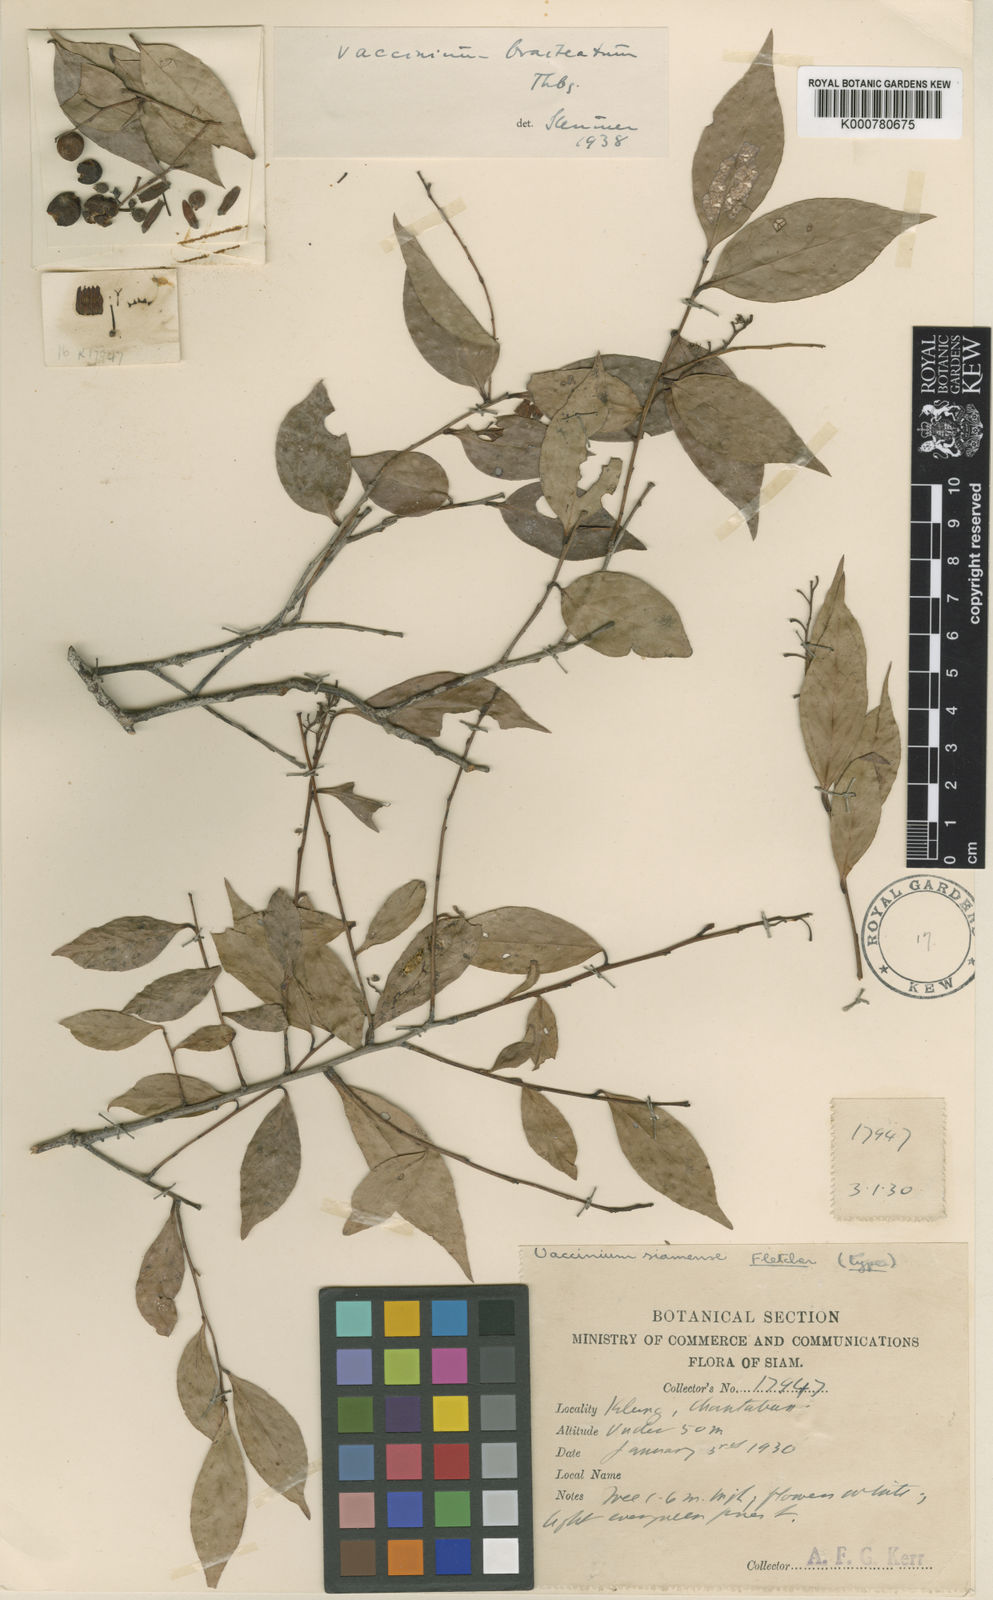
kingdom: Plantae
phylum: Tracheophyta
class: Magnoliopsida
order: Ericales
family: Ericaceae
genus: Vaccinium
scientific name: Vaccinium bracteatum
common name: Sea bilberry
